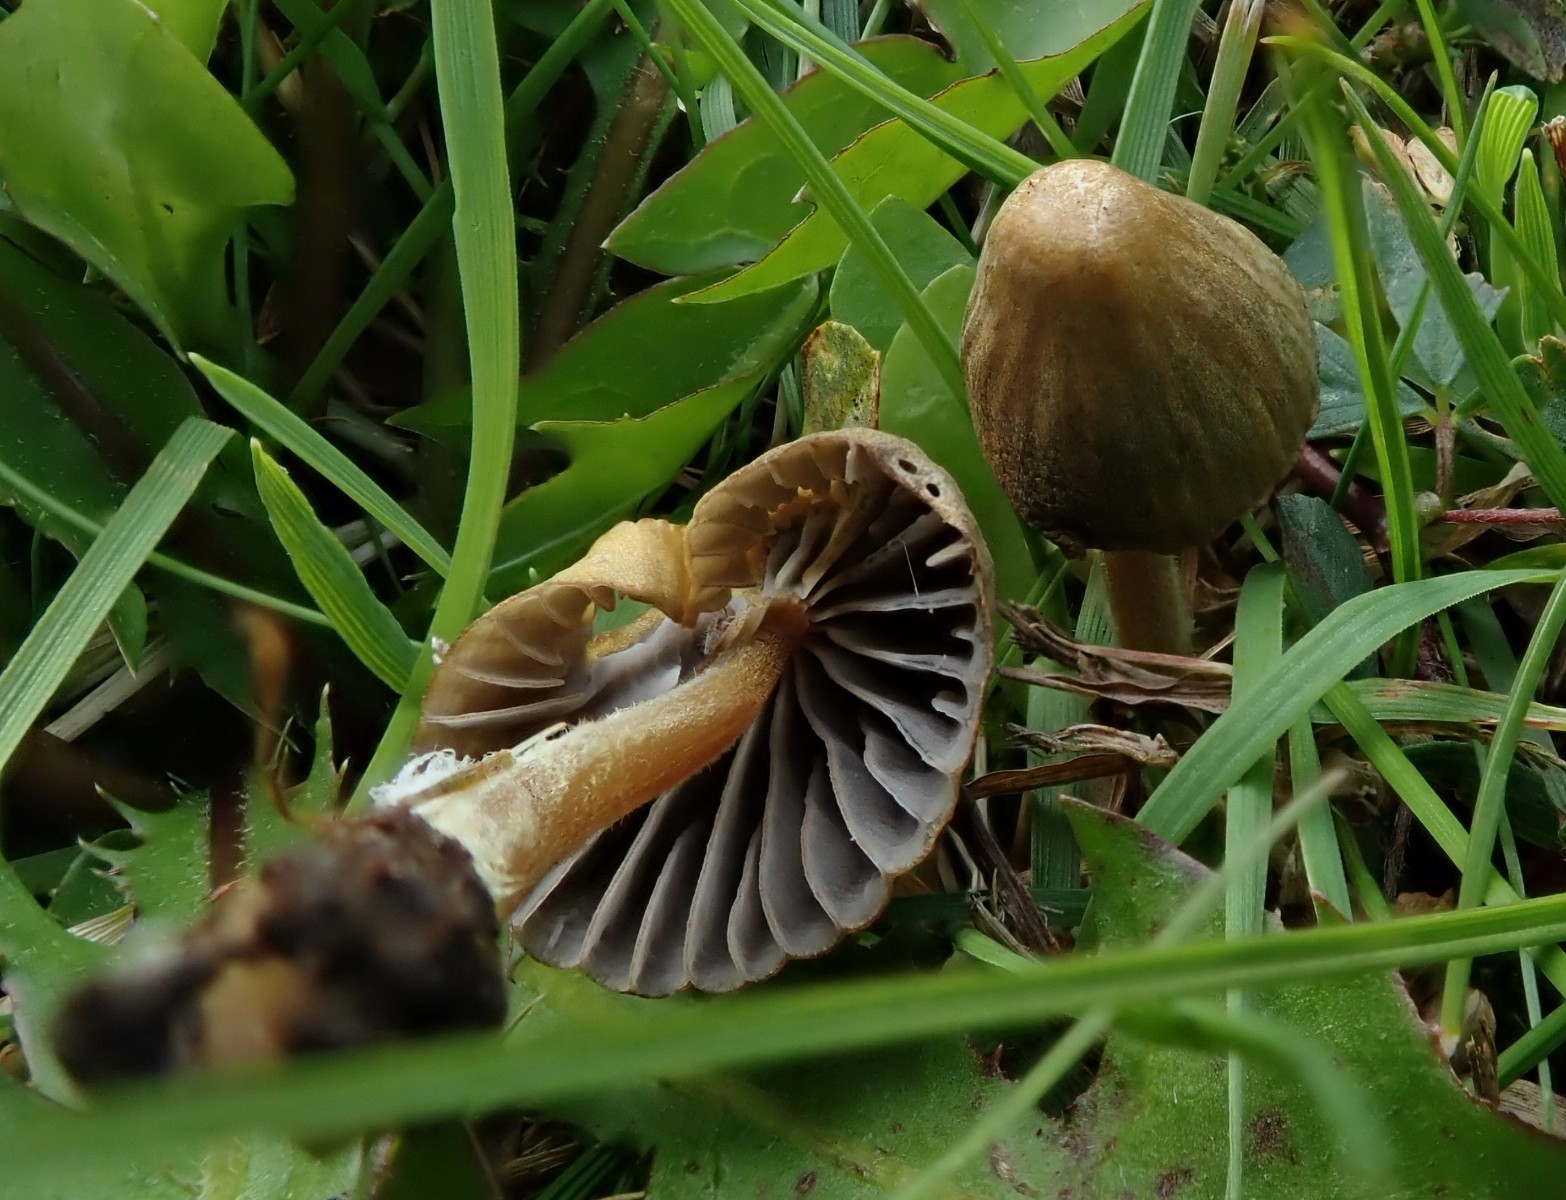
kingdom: Fungi
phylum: Basidiomycota
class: Agaricomycetes
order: Agaricales
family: Mycenaceae
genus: Mycena
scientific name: Mycena olivaceomarginata
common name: brunægget huesvamp
